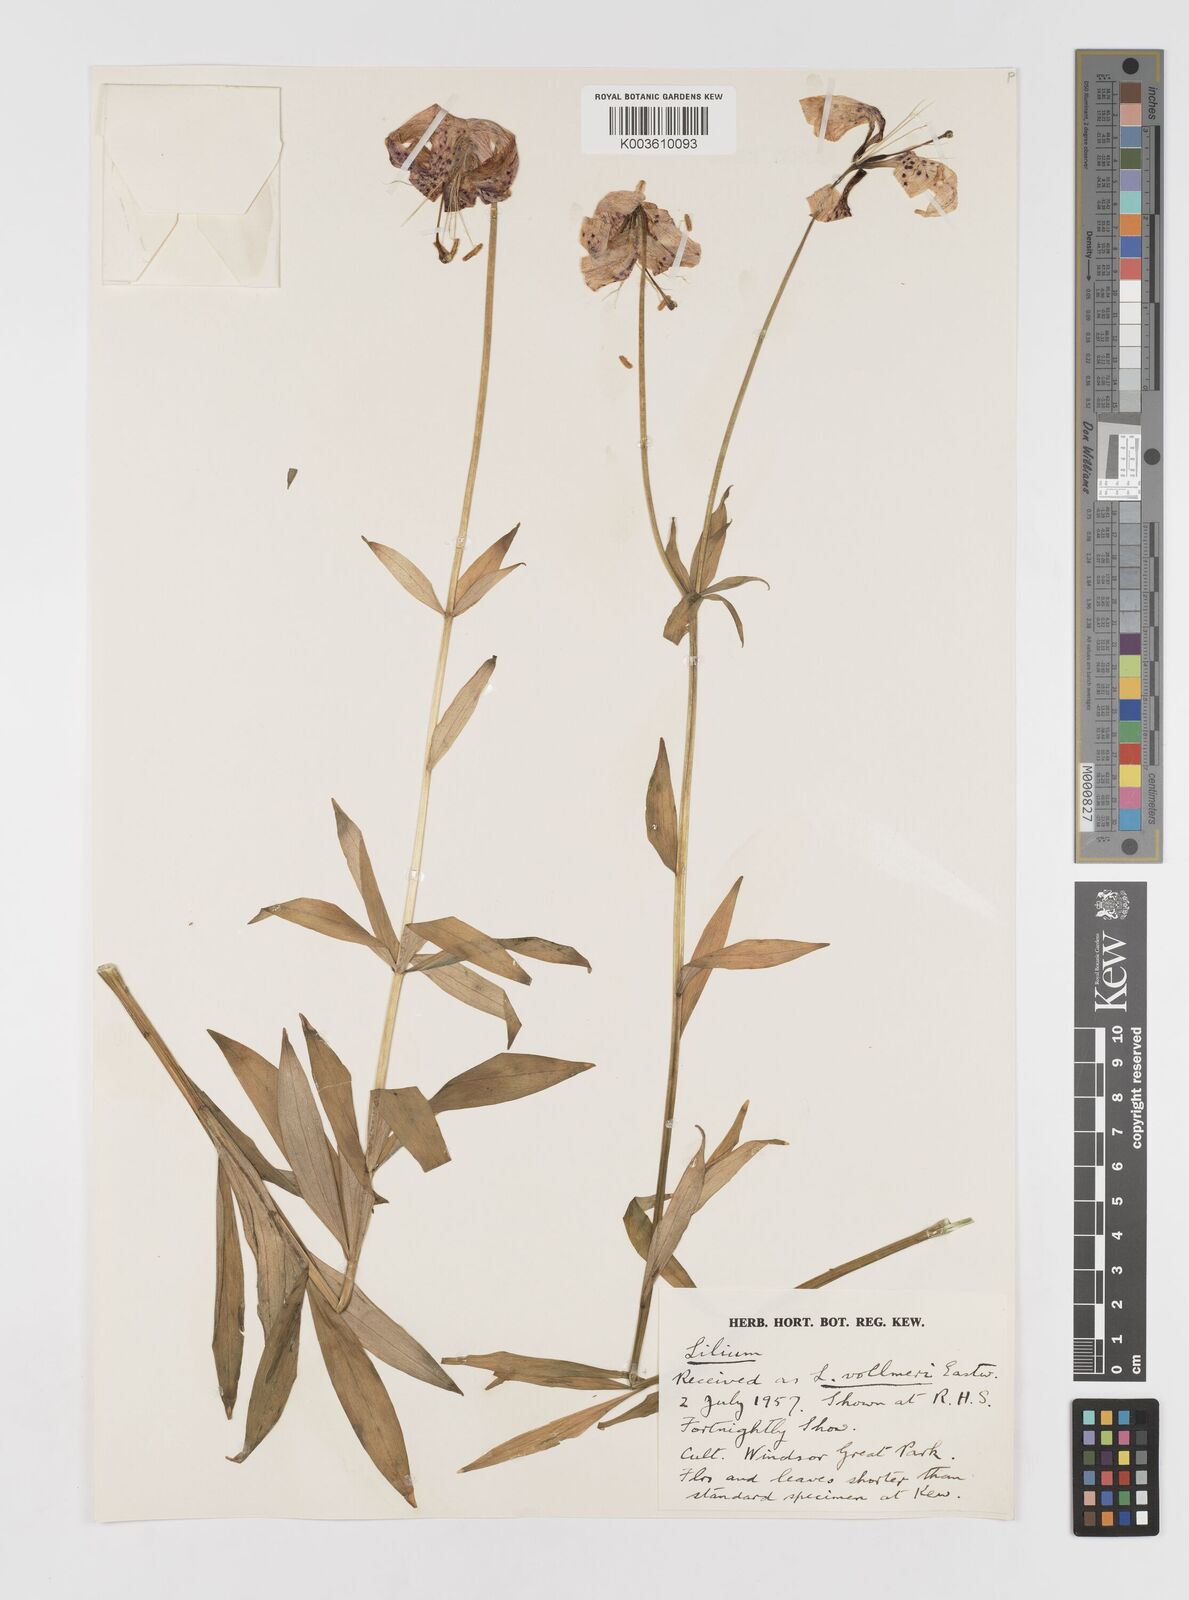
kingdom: Plantae
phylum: Tracheophyta
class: Liliopsida
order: Liliales
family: Liliaceae
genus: Lilium
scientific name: Lilium kelleyanum
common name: Kelley's lily
